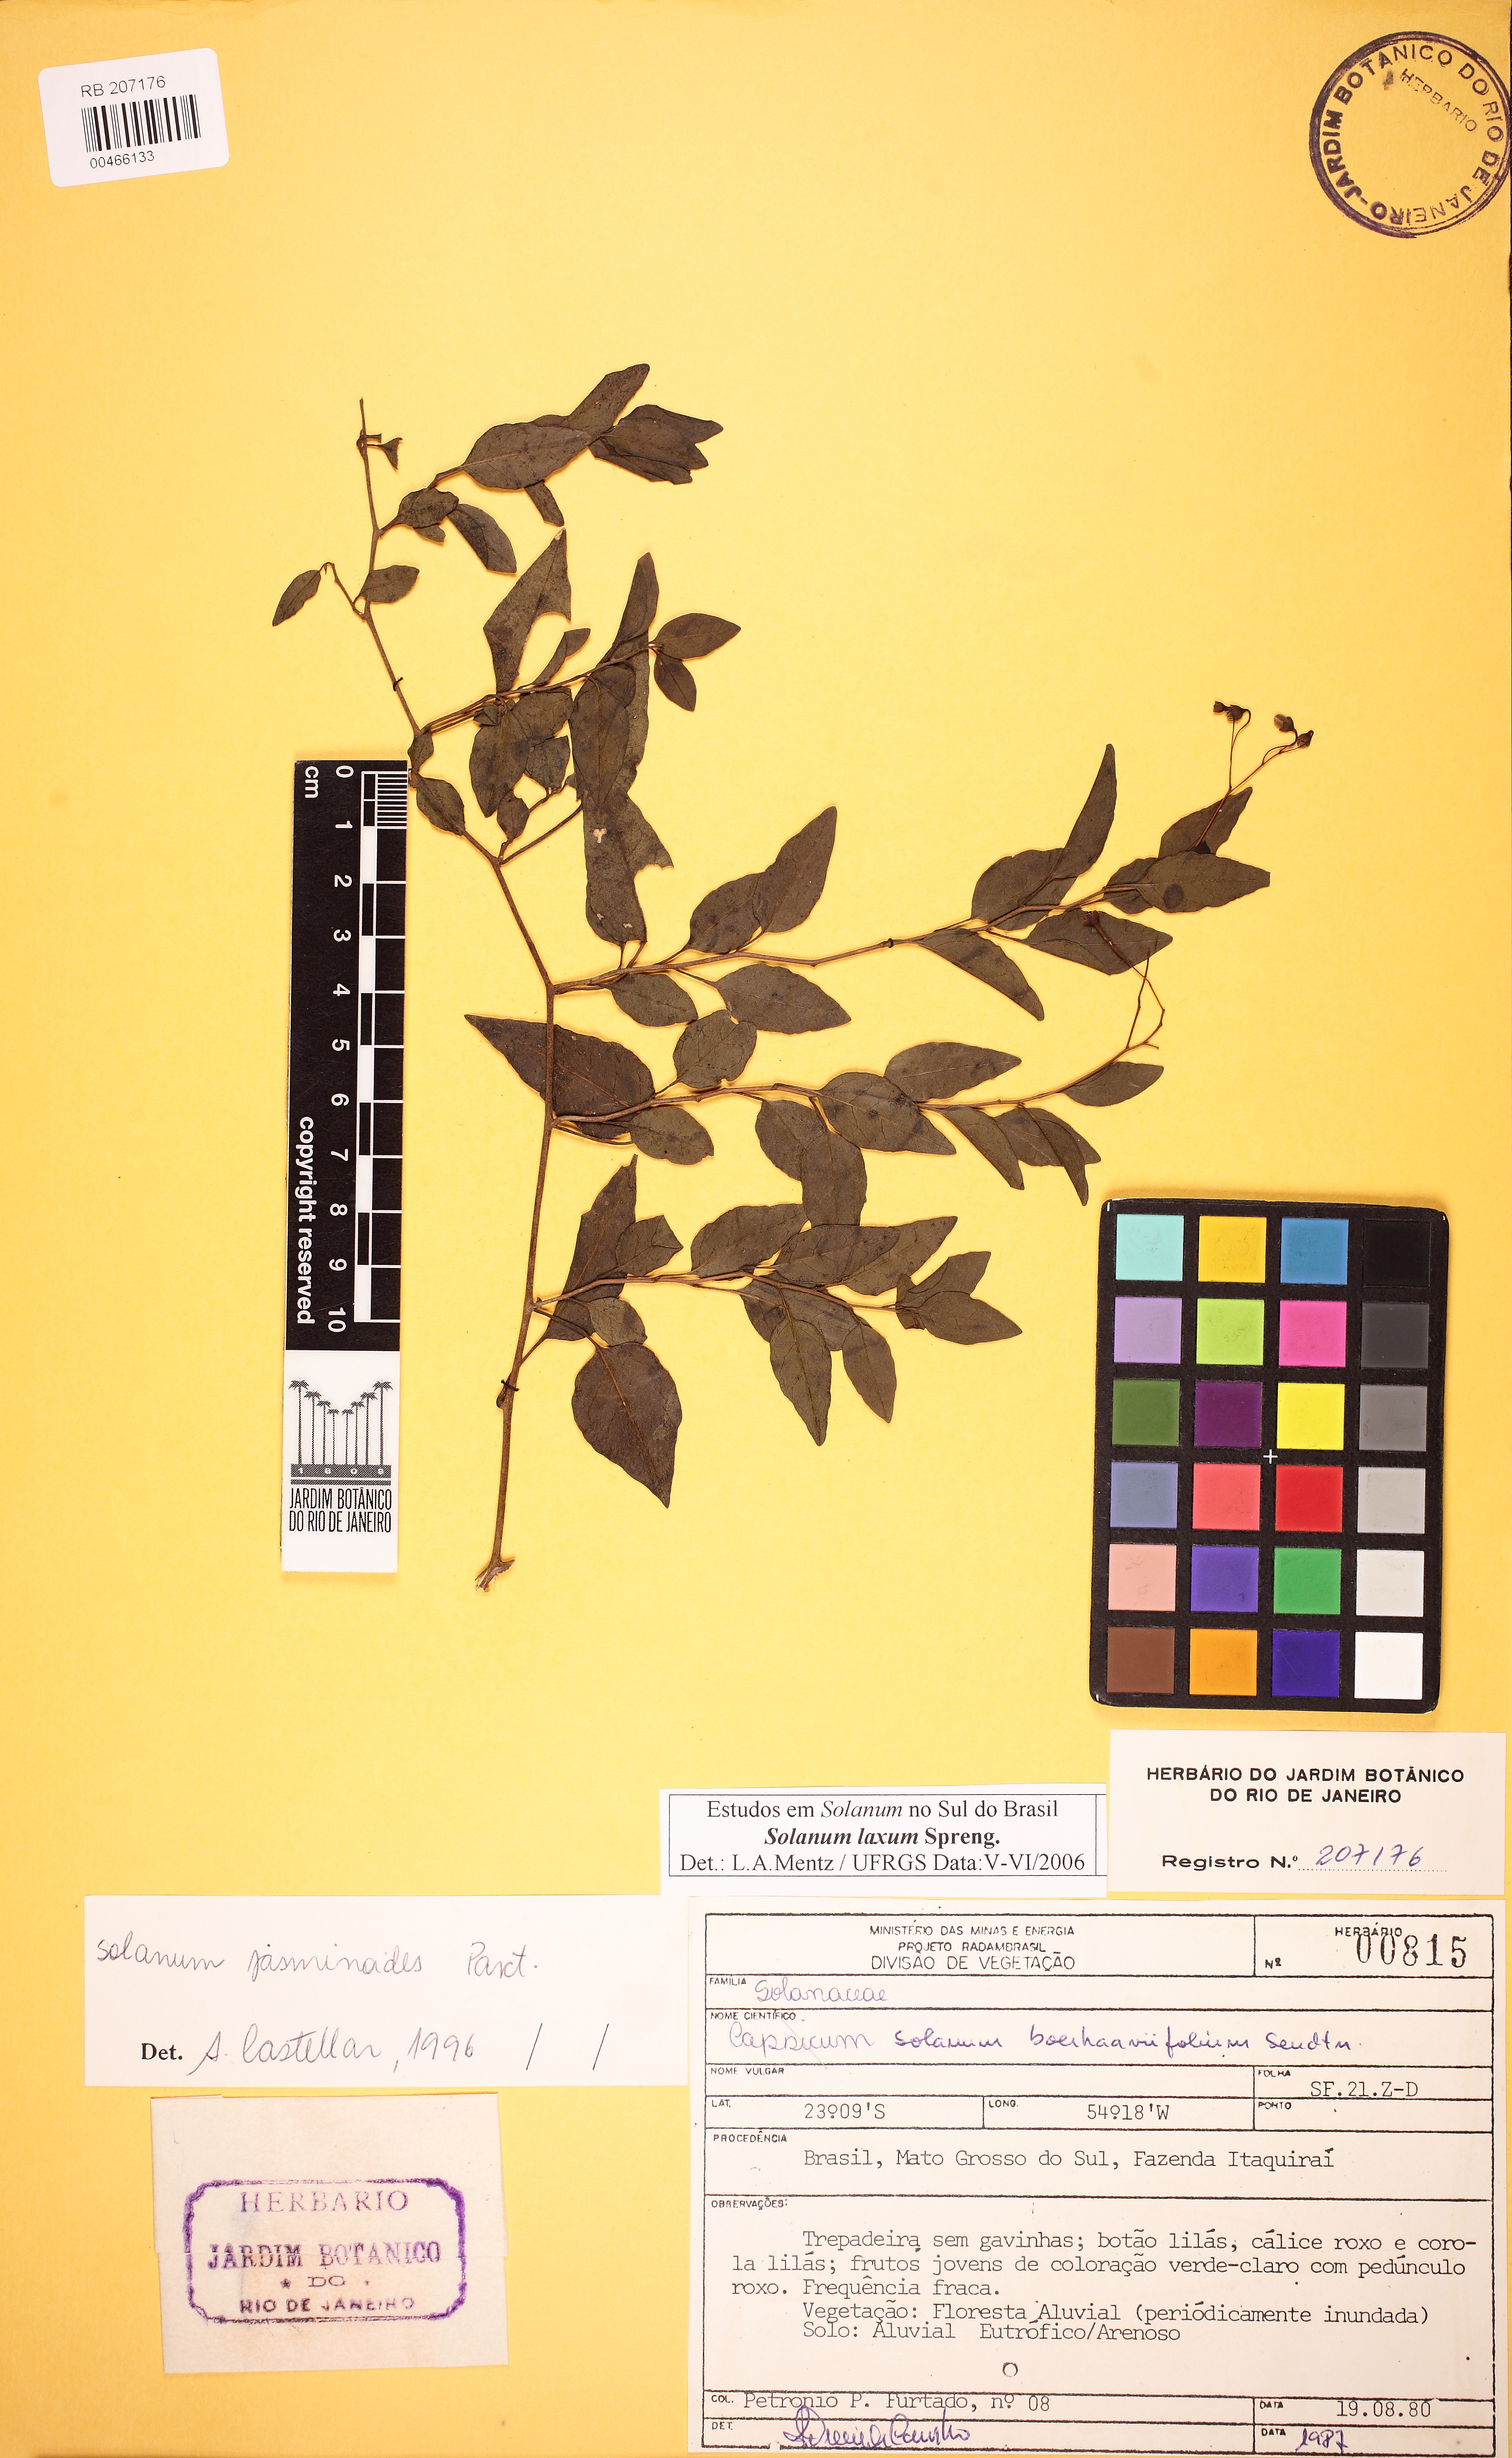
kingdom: Plantae
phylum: Tracheophyta
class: Magnoliopsida
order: Solanales
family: Solanaceae
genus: Solanum
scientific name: Solanum laxum
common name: Nightshade
